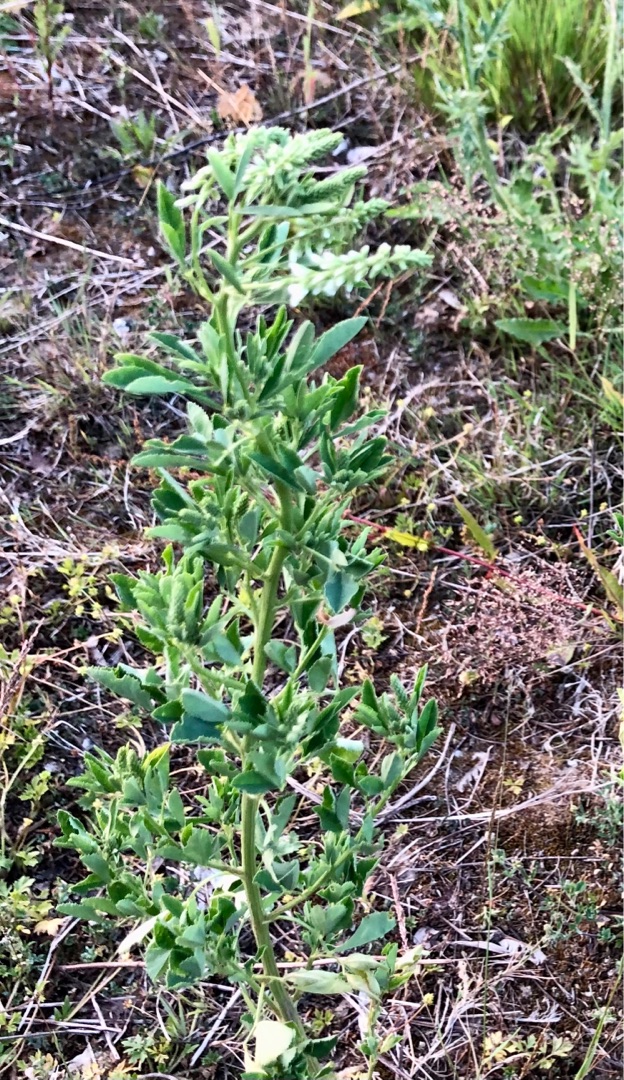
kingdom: Plantae
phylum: Tracheophyta
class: Magnoliopsida
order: Fabales
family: Fabaceae
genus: Melilotus
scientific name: Melilotus albus
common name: Hvid stenkløver
